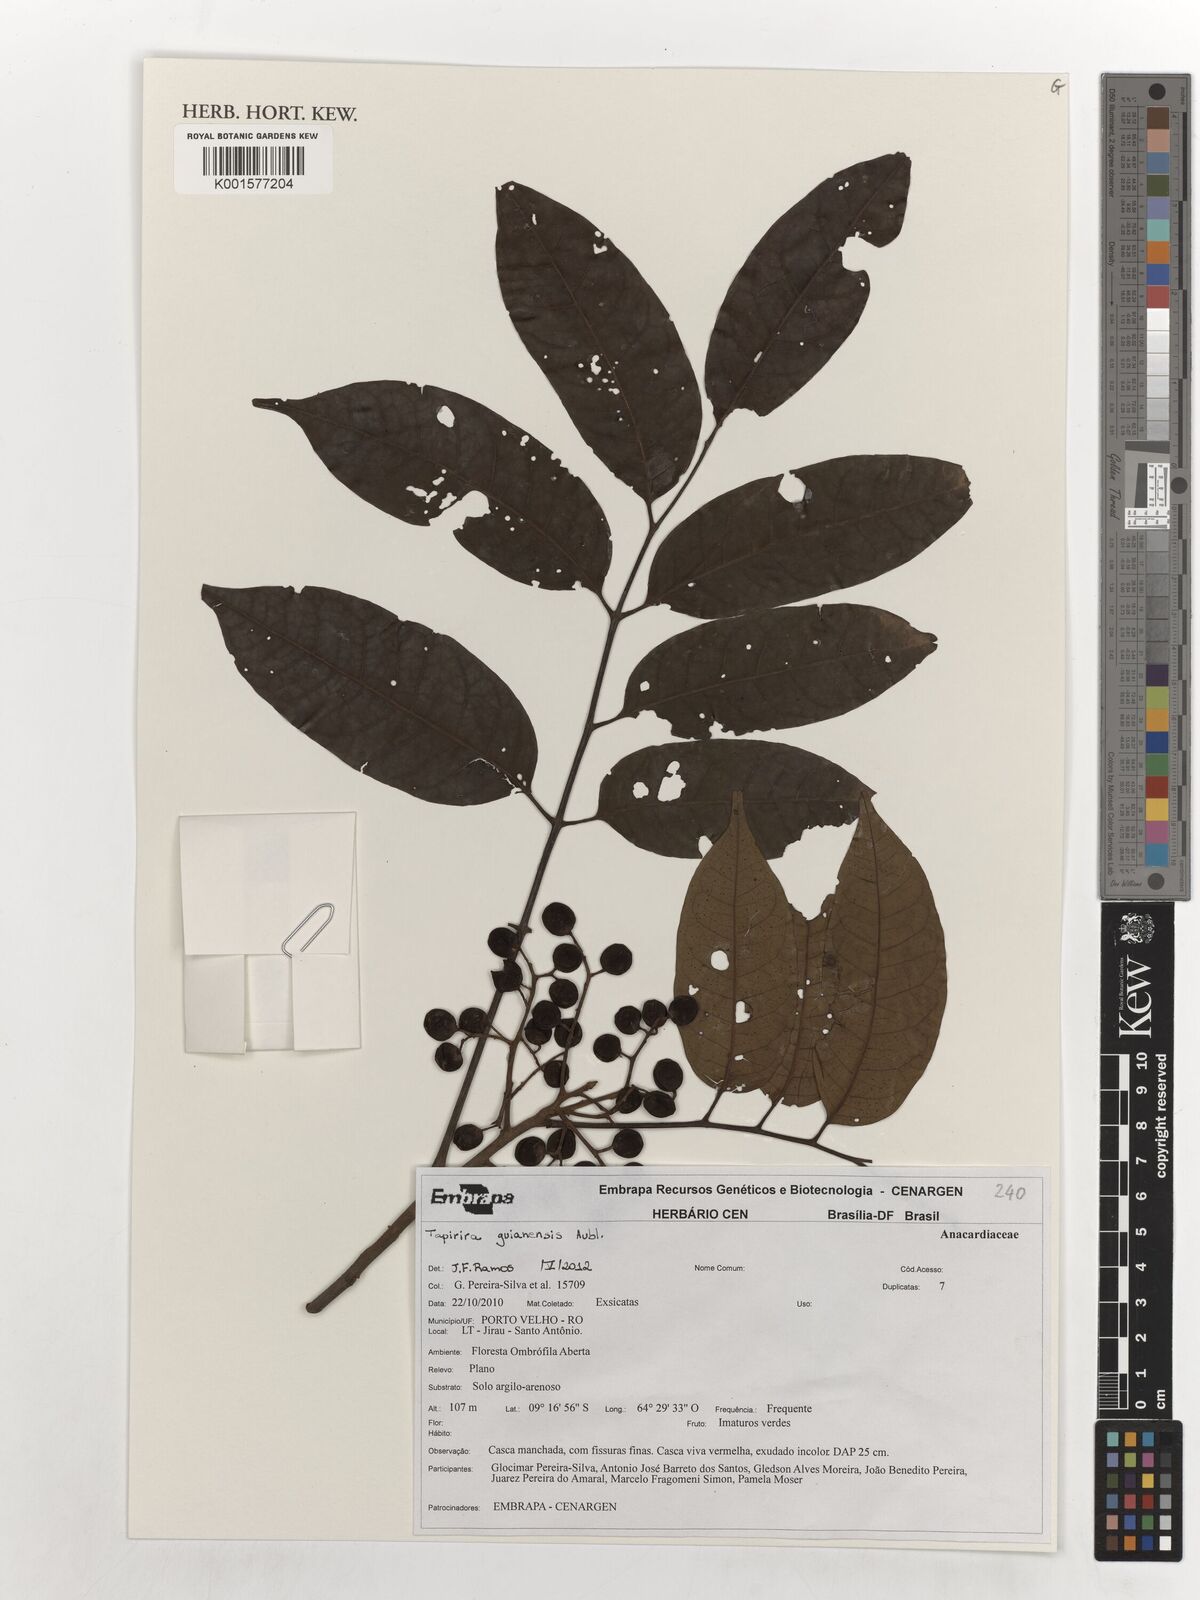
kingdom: Plantae
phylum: Tracheophyta
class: Magnoliopsida
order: Sapindales
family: Anacardiaceae
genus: Tapirira
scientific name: Tapirira guianensis
